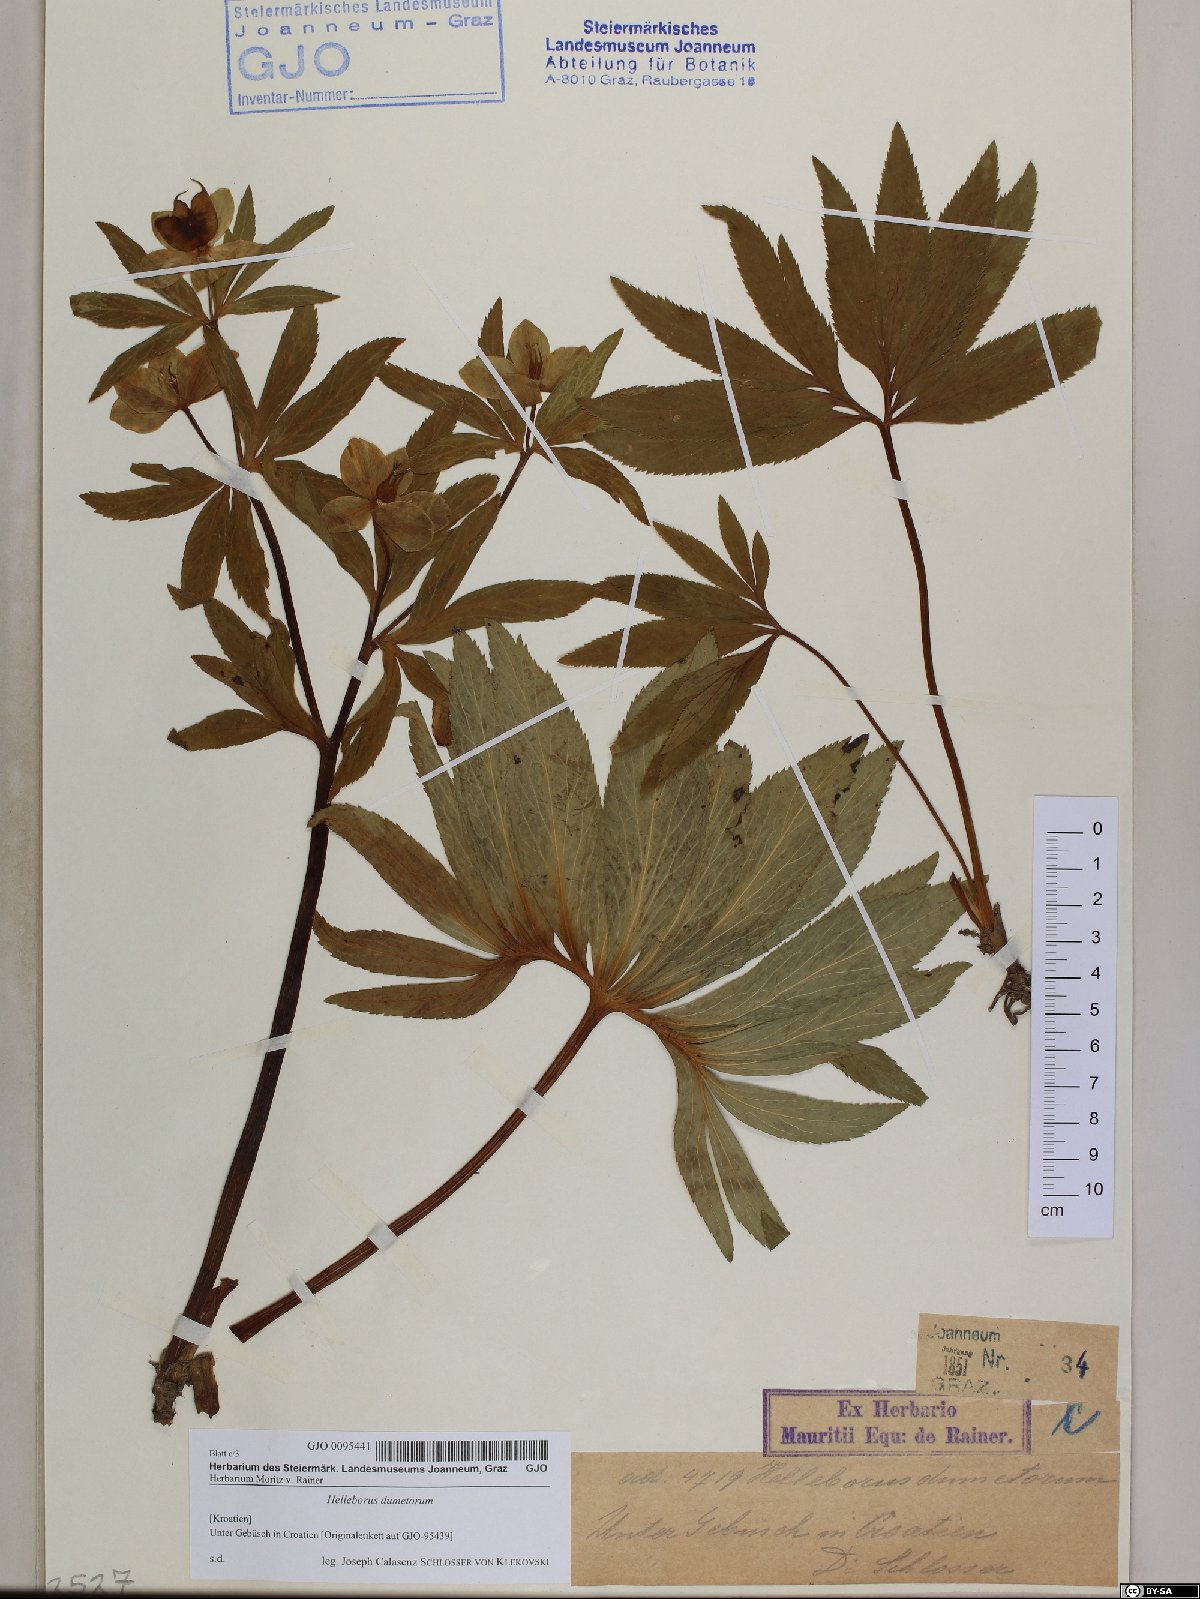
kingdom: Plantae
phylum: Tracheophyta
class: Magnoliopsida
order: Ranunculales
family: Ranunculaceae
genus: Helleborus
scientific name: Helleborus dumetorum
